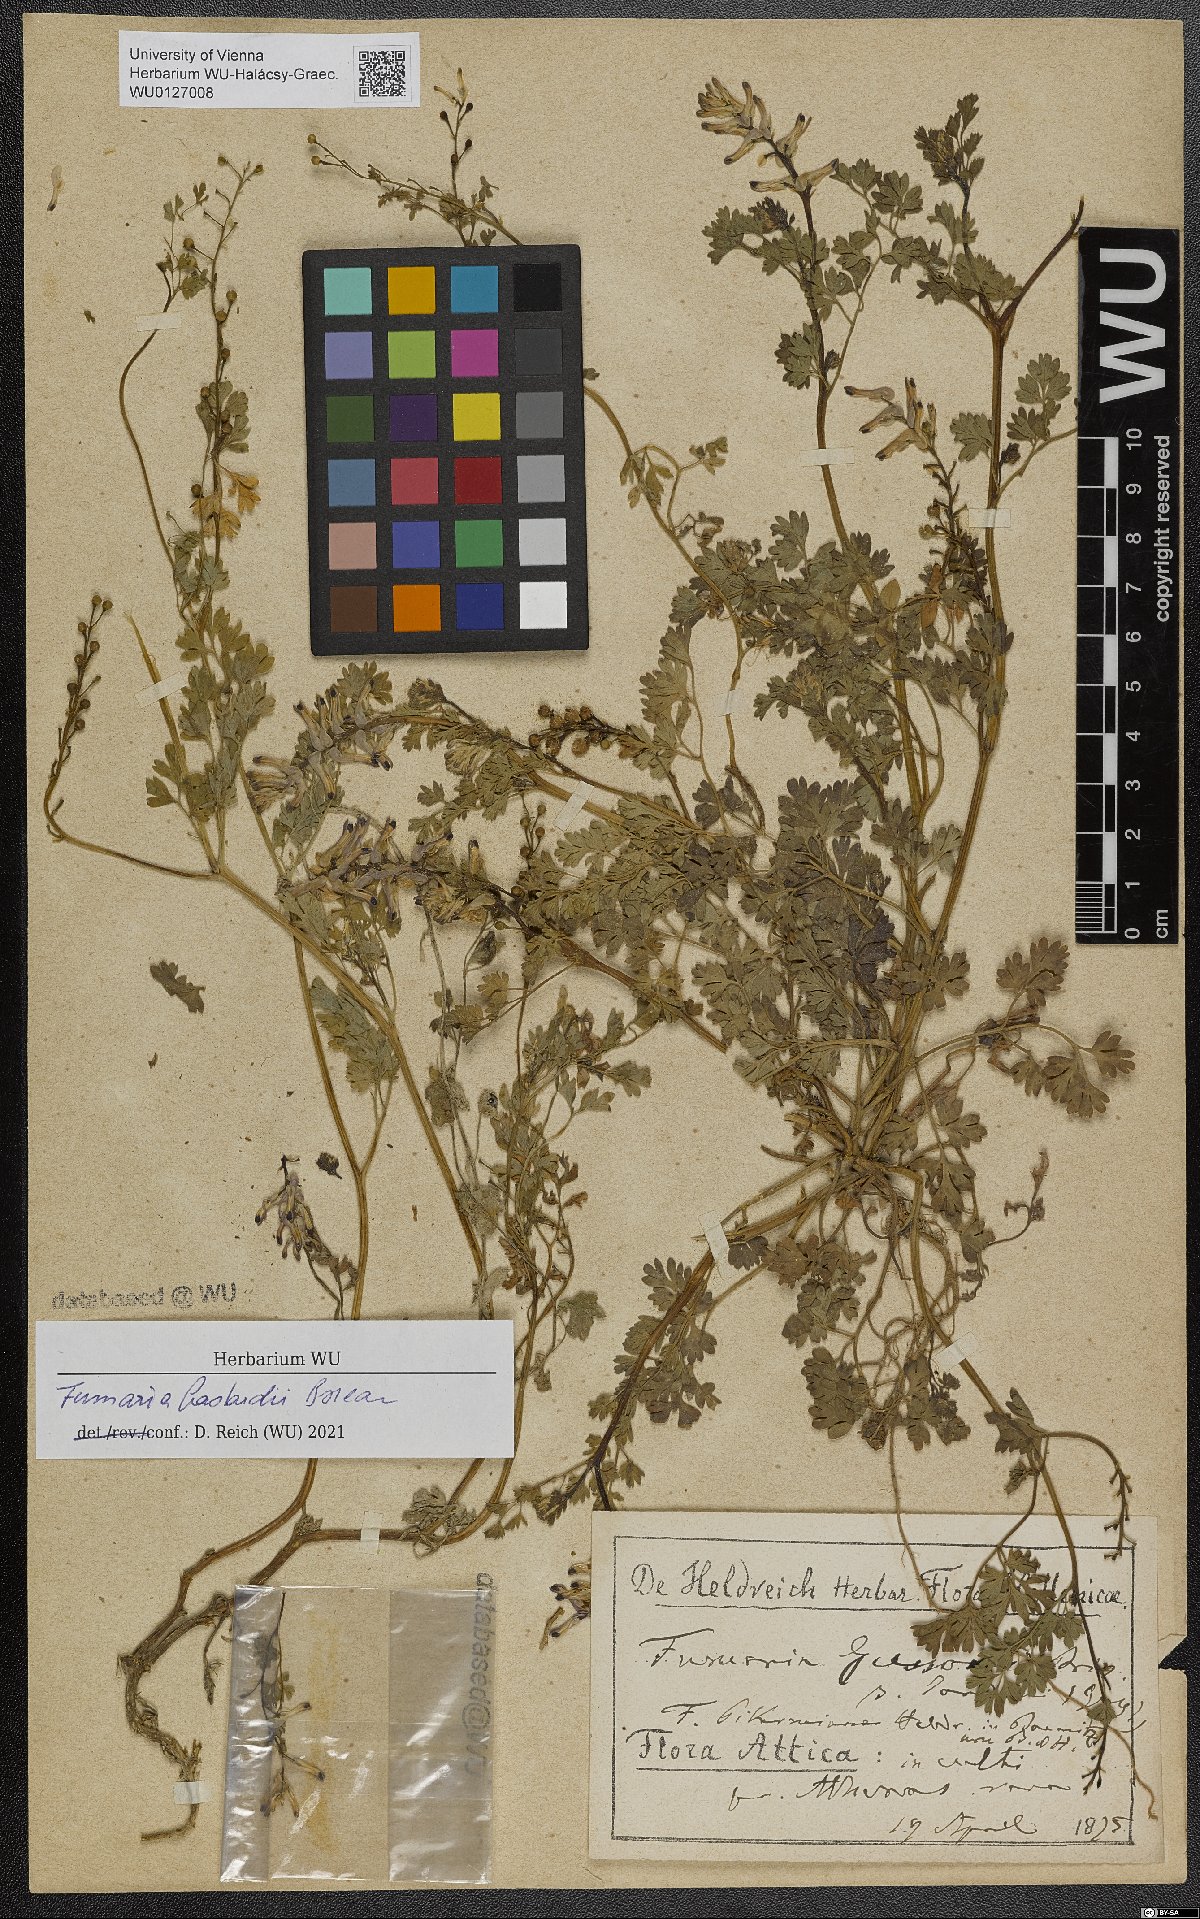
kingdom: Plantae
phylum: Tracheophyta
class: Magnoliopsida
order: Ranunculales
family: Papaveraceae
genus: Fumaria
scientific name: Fumaria bastardii
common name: Tall ramping-fumitory
